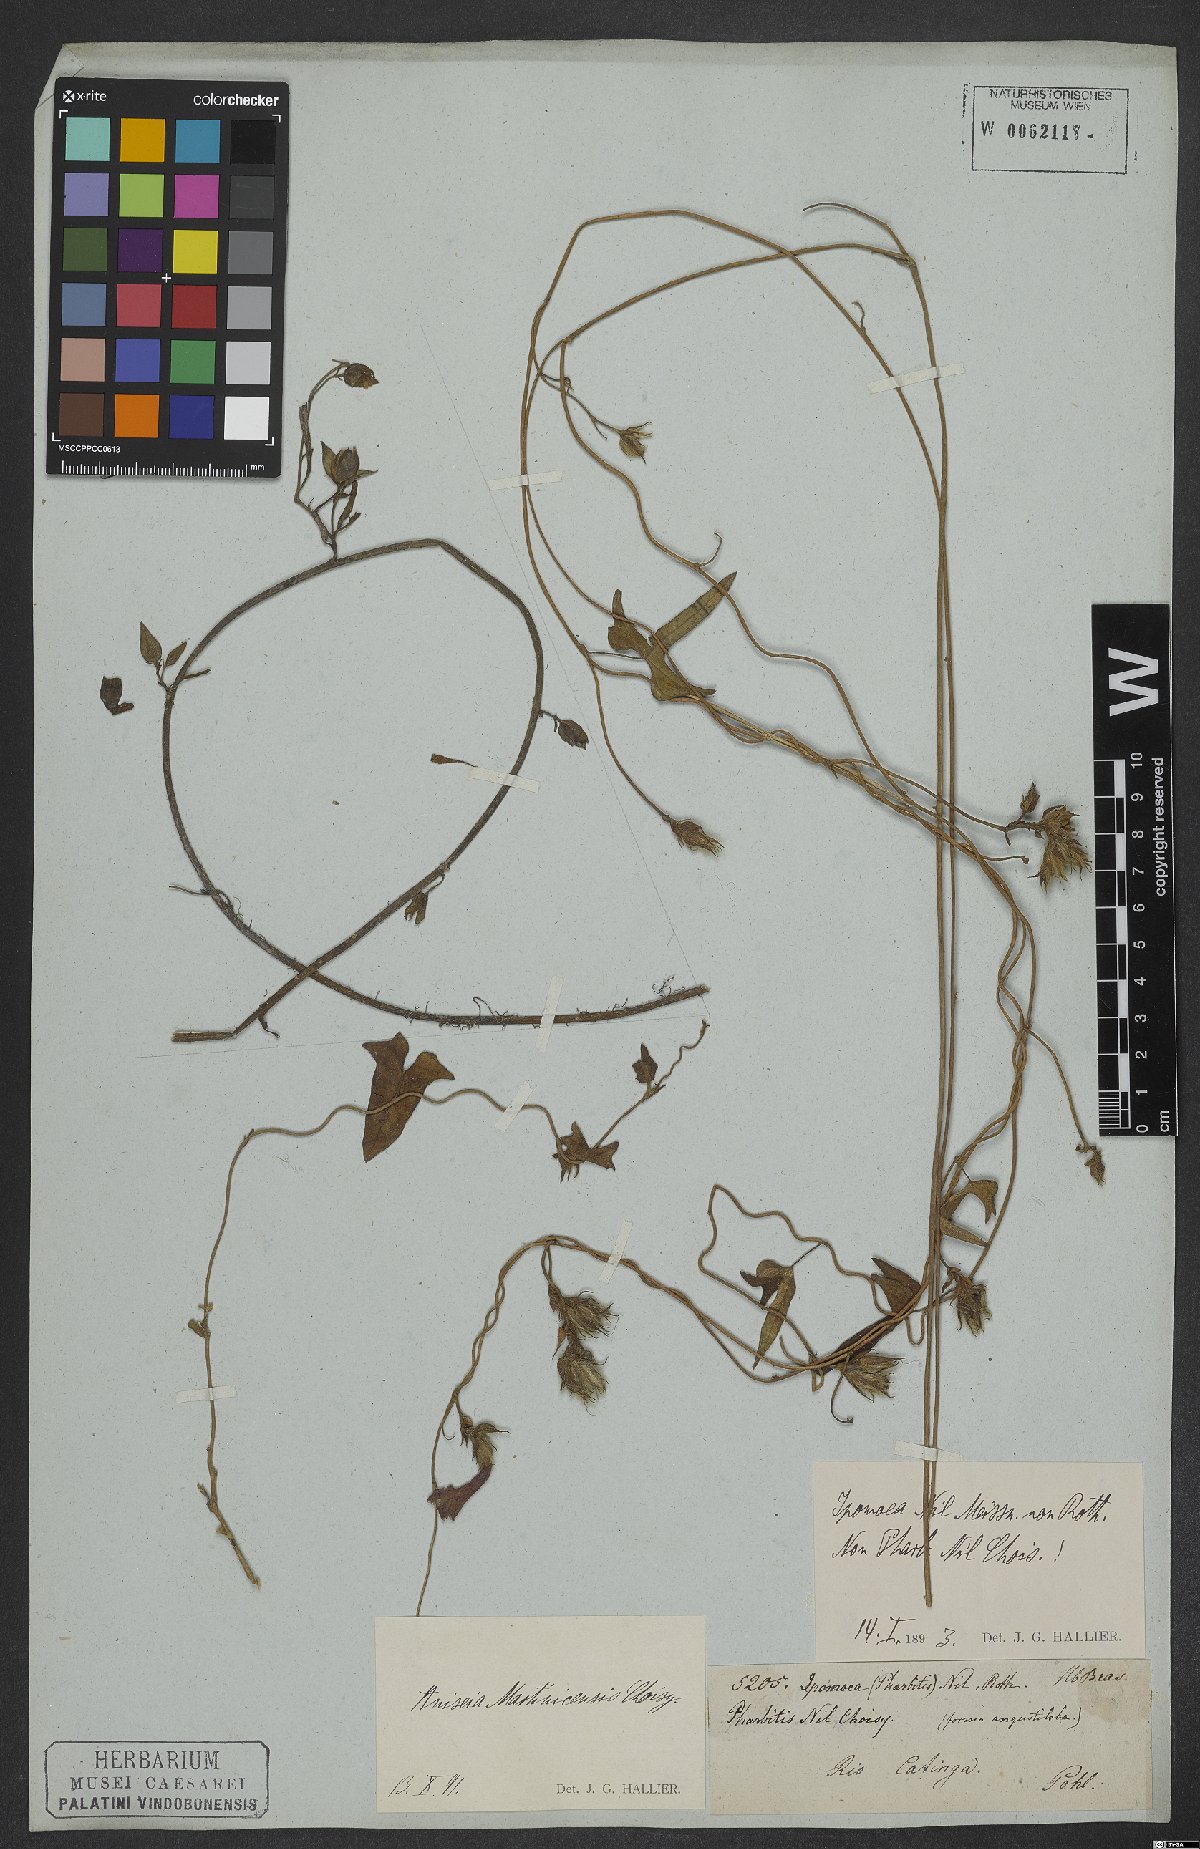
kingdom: Plantae
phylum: Tracheophyta
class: Magnoliopsida
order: Solanales
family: Convolvulaceae
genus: Ipomoea
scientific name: Ipomoea purpurea
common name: Common morning-glory
